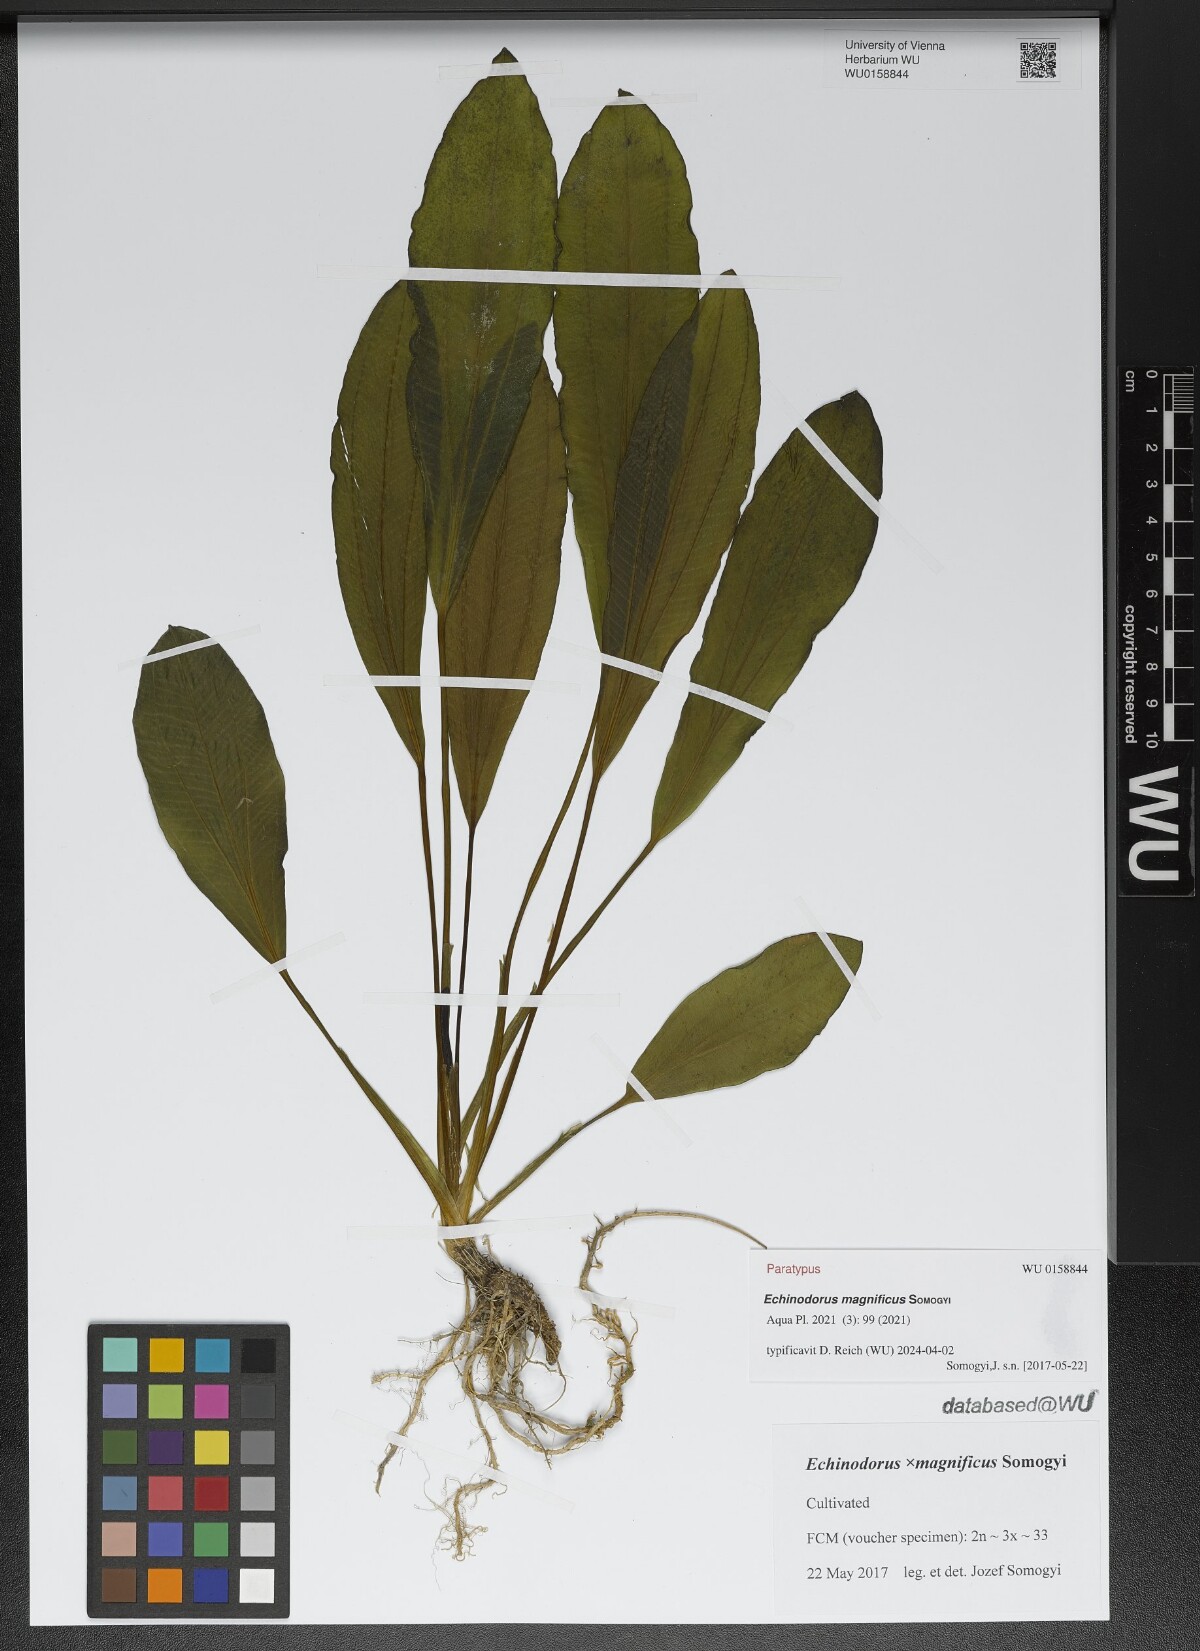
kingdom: Plantae
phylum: Tracheophyta
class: Liliopsida
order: Alismatales
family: Alismataceae
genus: Echinodorus
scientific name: Echinodorus
